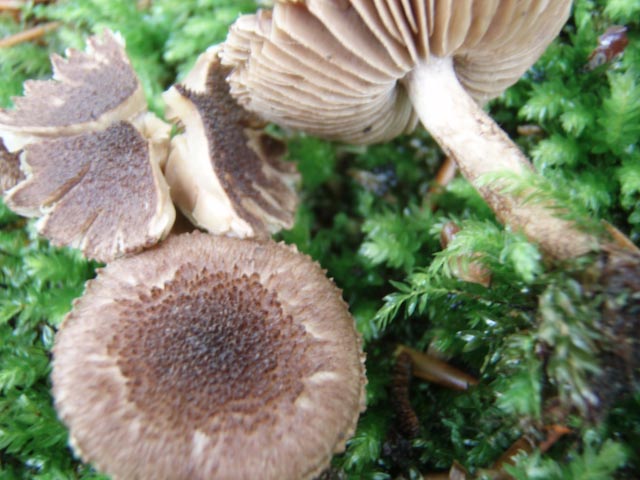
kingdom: Fungi
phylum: Basidiomycota
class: Agaricomycetes
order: Agaricales
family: Inocybaceae
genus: Inocybe
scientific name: Inocybe lanuginosa
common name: uldskællet trævlhat
